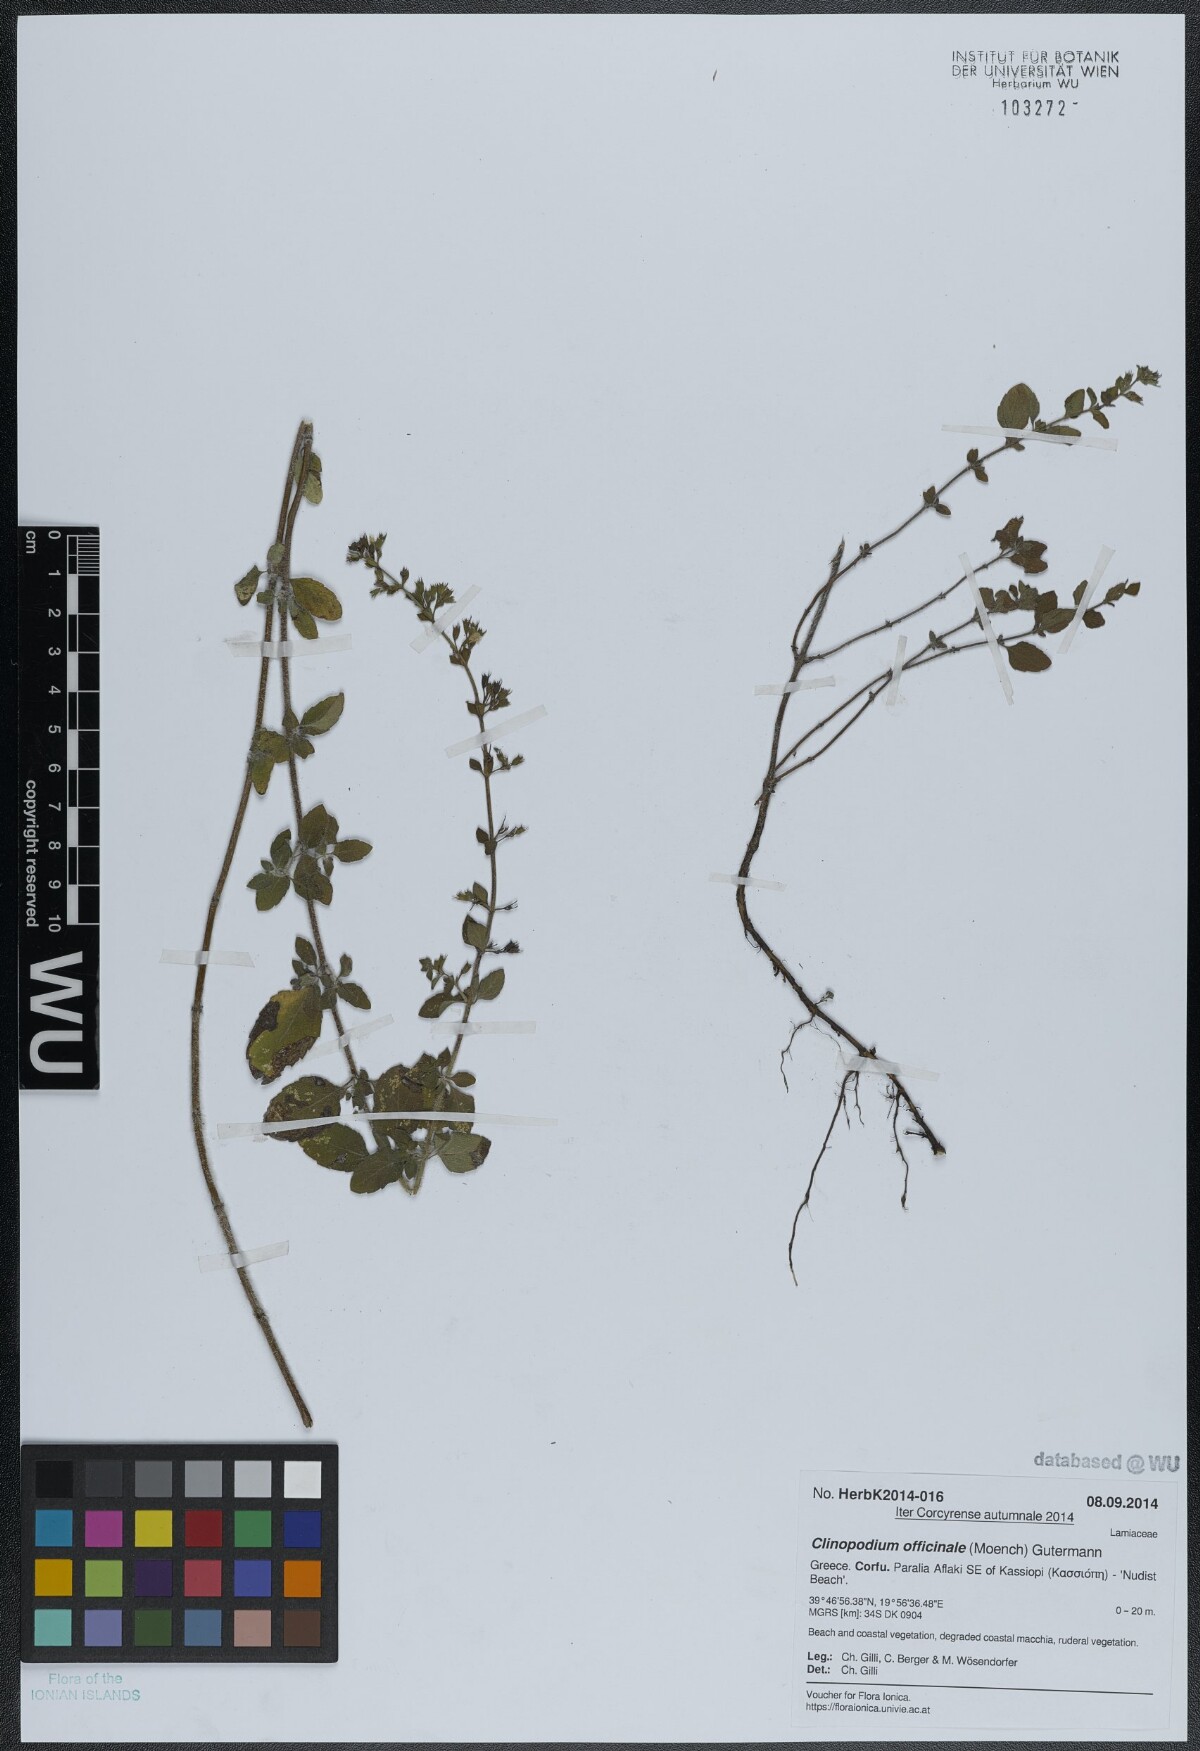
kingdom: Plantae
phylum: Tracheophyta
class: Magnoliopsida
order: Lamiales
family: Lamiaceae
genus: Clinopodium
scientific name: Clinopodium nepeta
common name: Lesser calamint
